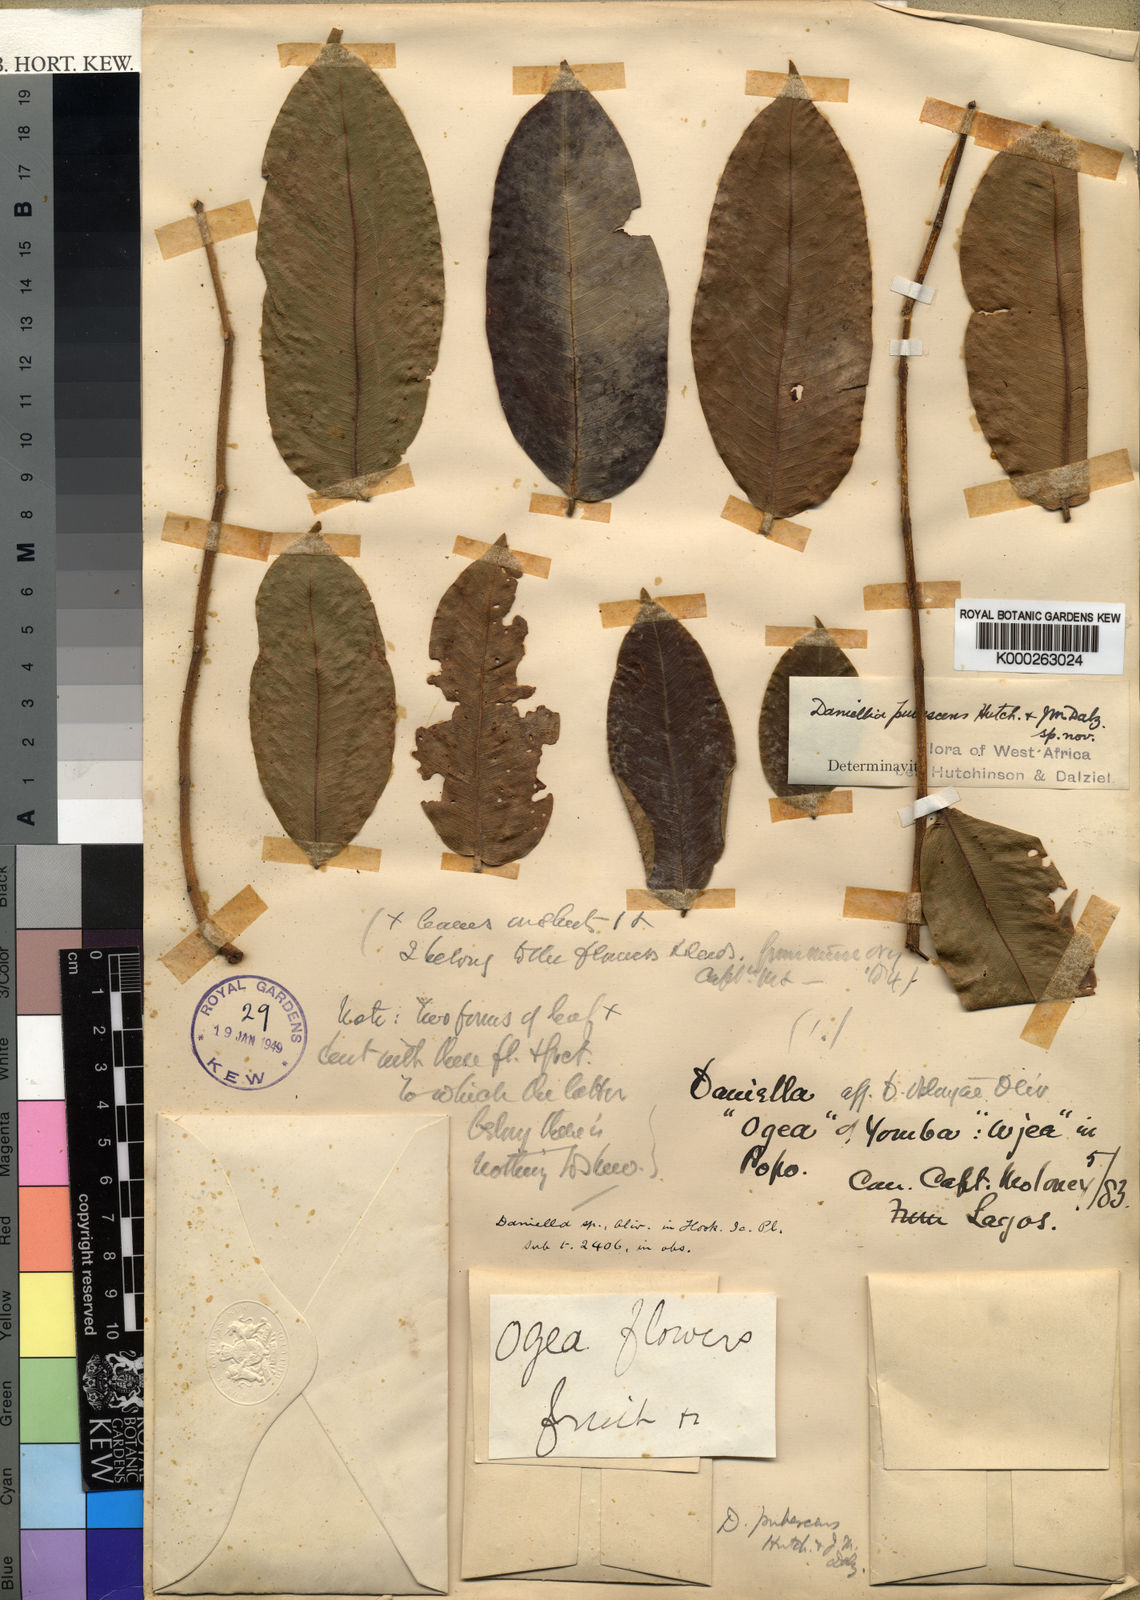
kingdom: Plantae
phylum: Tracheophyta
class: Magnoliopsida
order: Fabales
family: Fabaceae
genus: Daniellia
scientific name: Daniellia pynaertii
